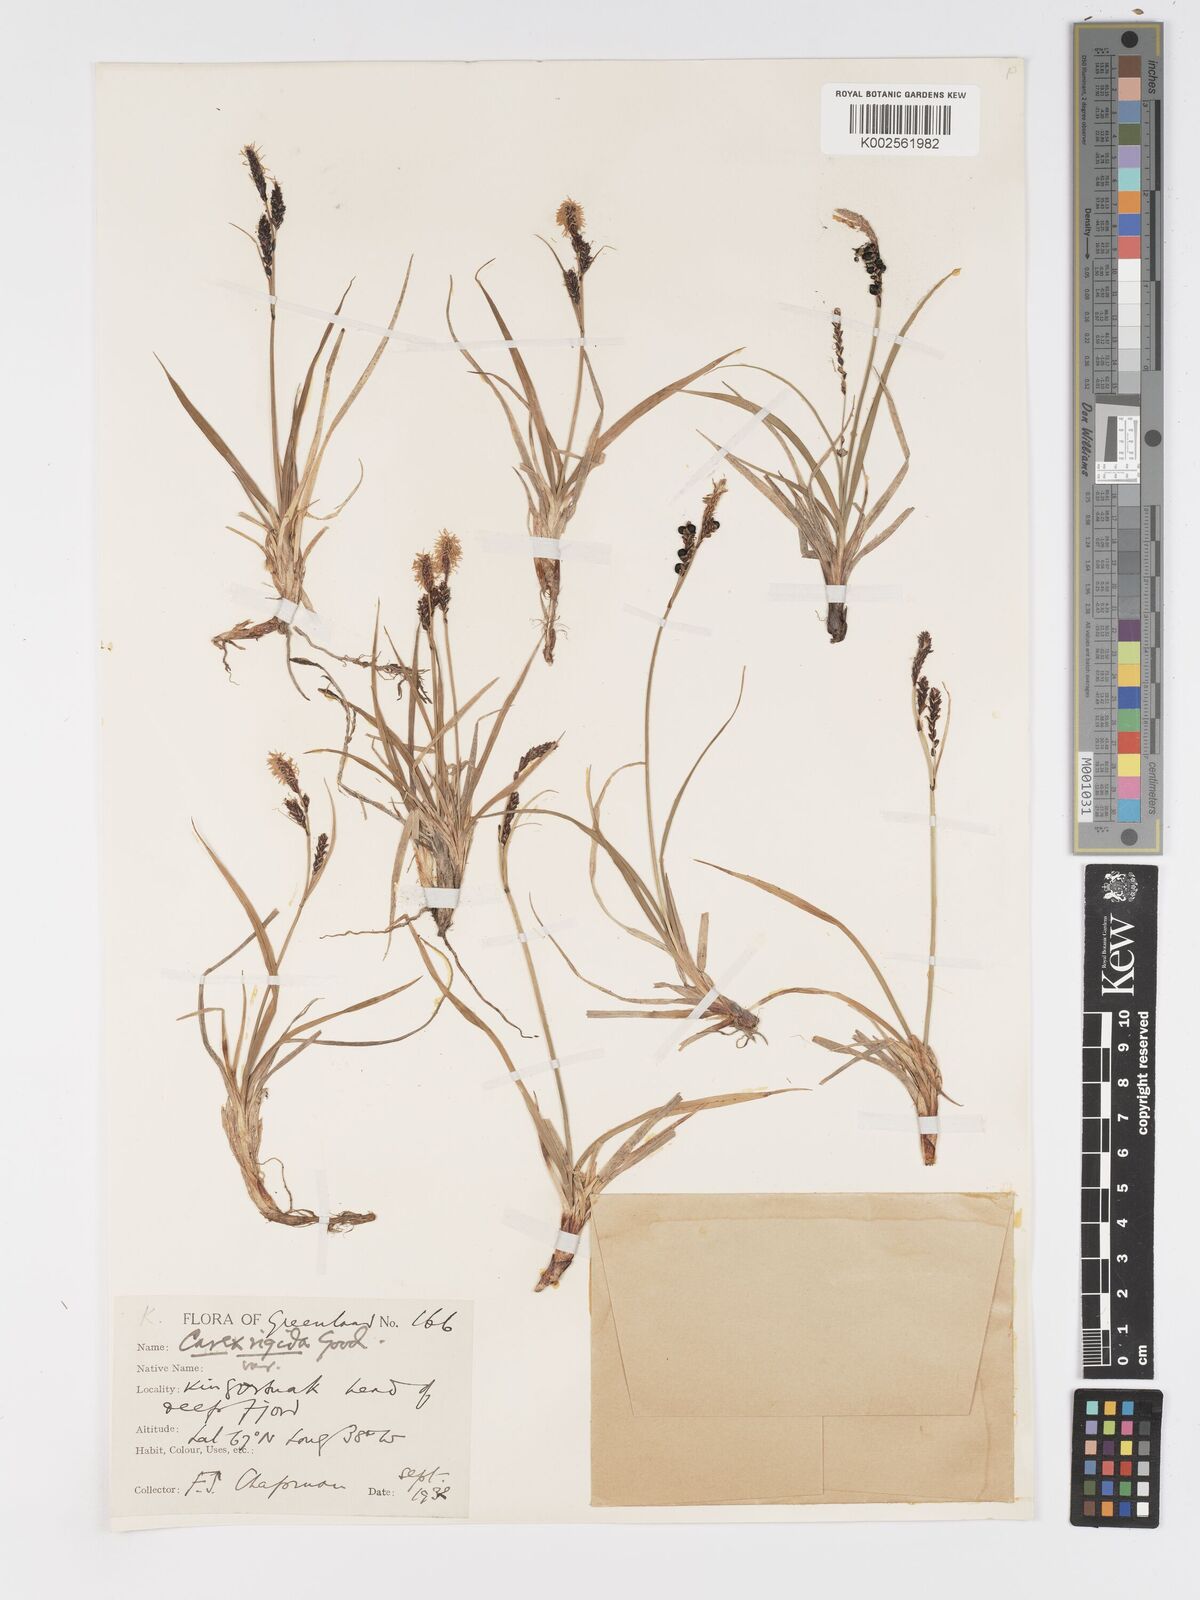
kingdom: Plantae
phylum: Tracheophyta
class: Liliopsida
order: Poales
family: Cyperaceae
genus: Carex
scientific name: Carex bigelowii
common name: Stiff sedge
